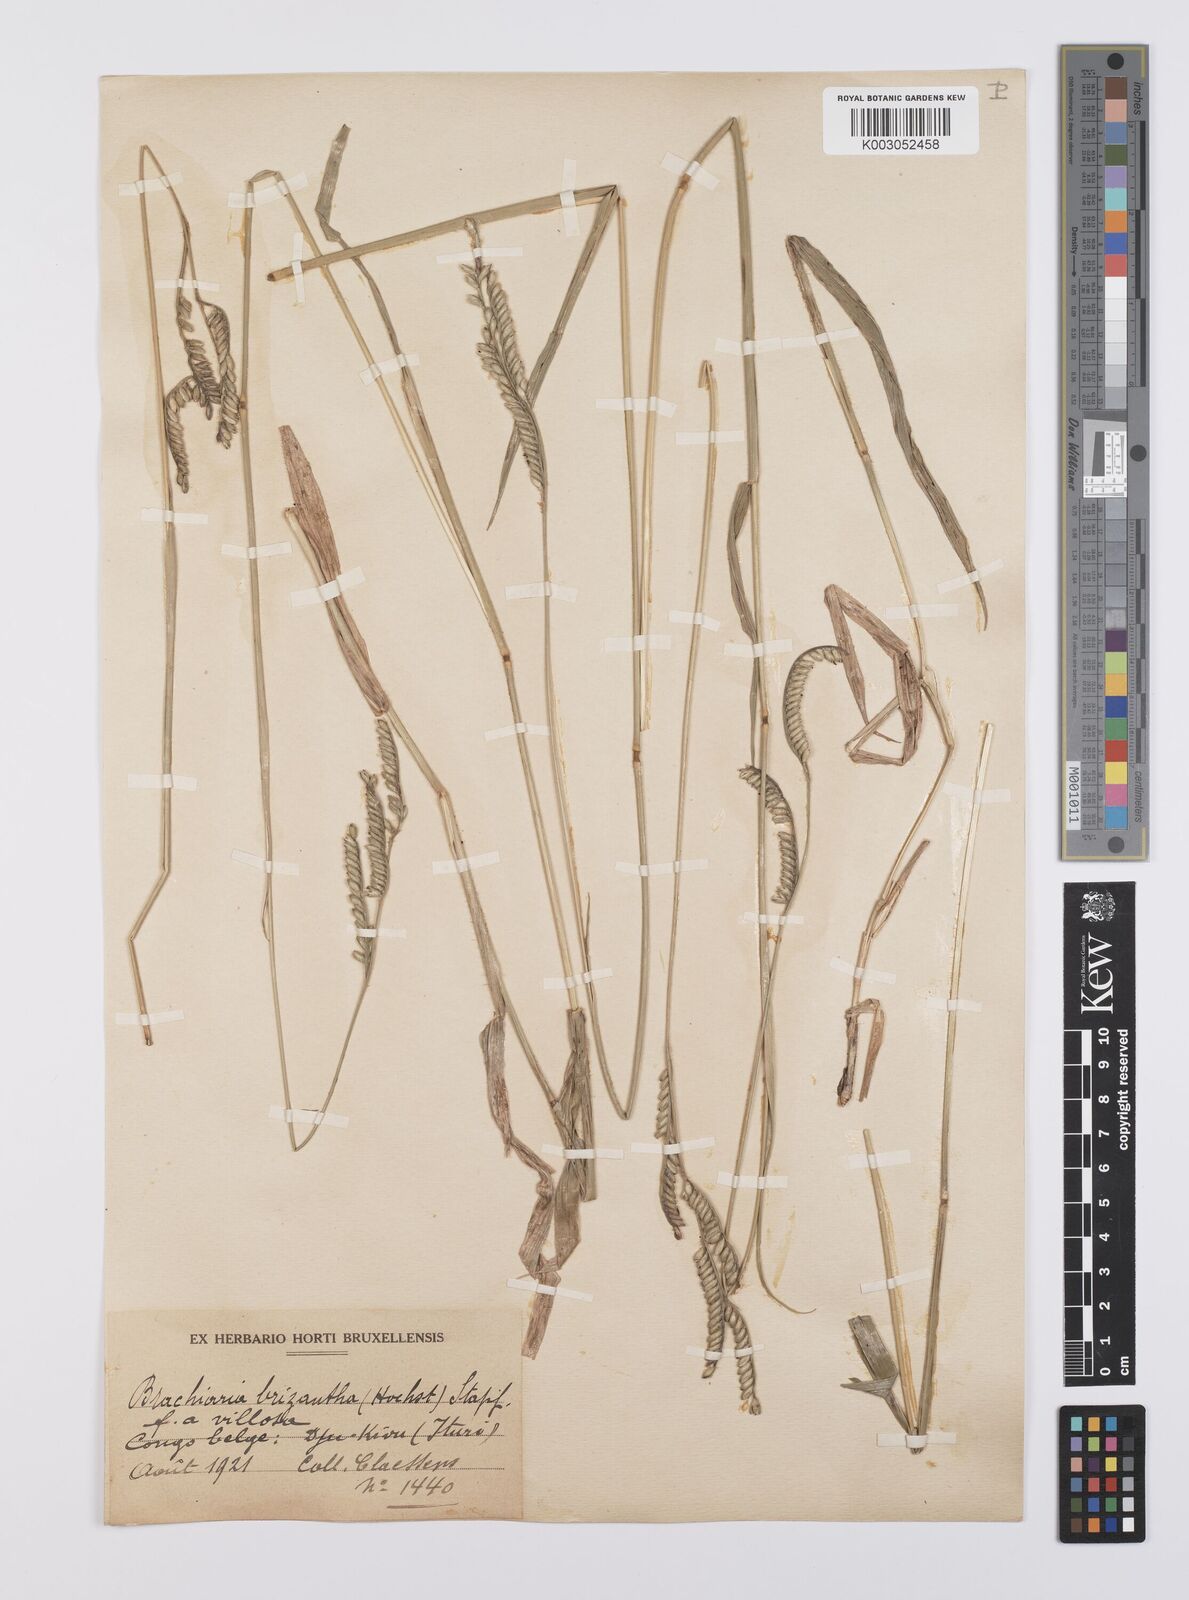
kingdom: Plantae
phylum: Tracheophyta
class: Liliopsida
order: Poales
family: Poaceae
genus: Urochloa
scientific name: Urochloa brizantha
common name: Palisade signalgrass
